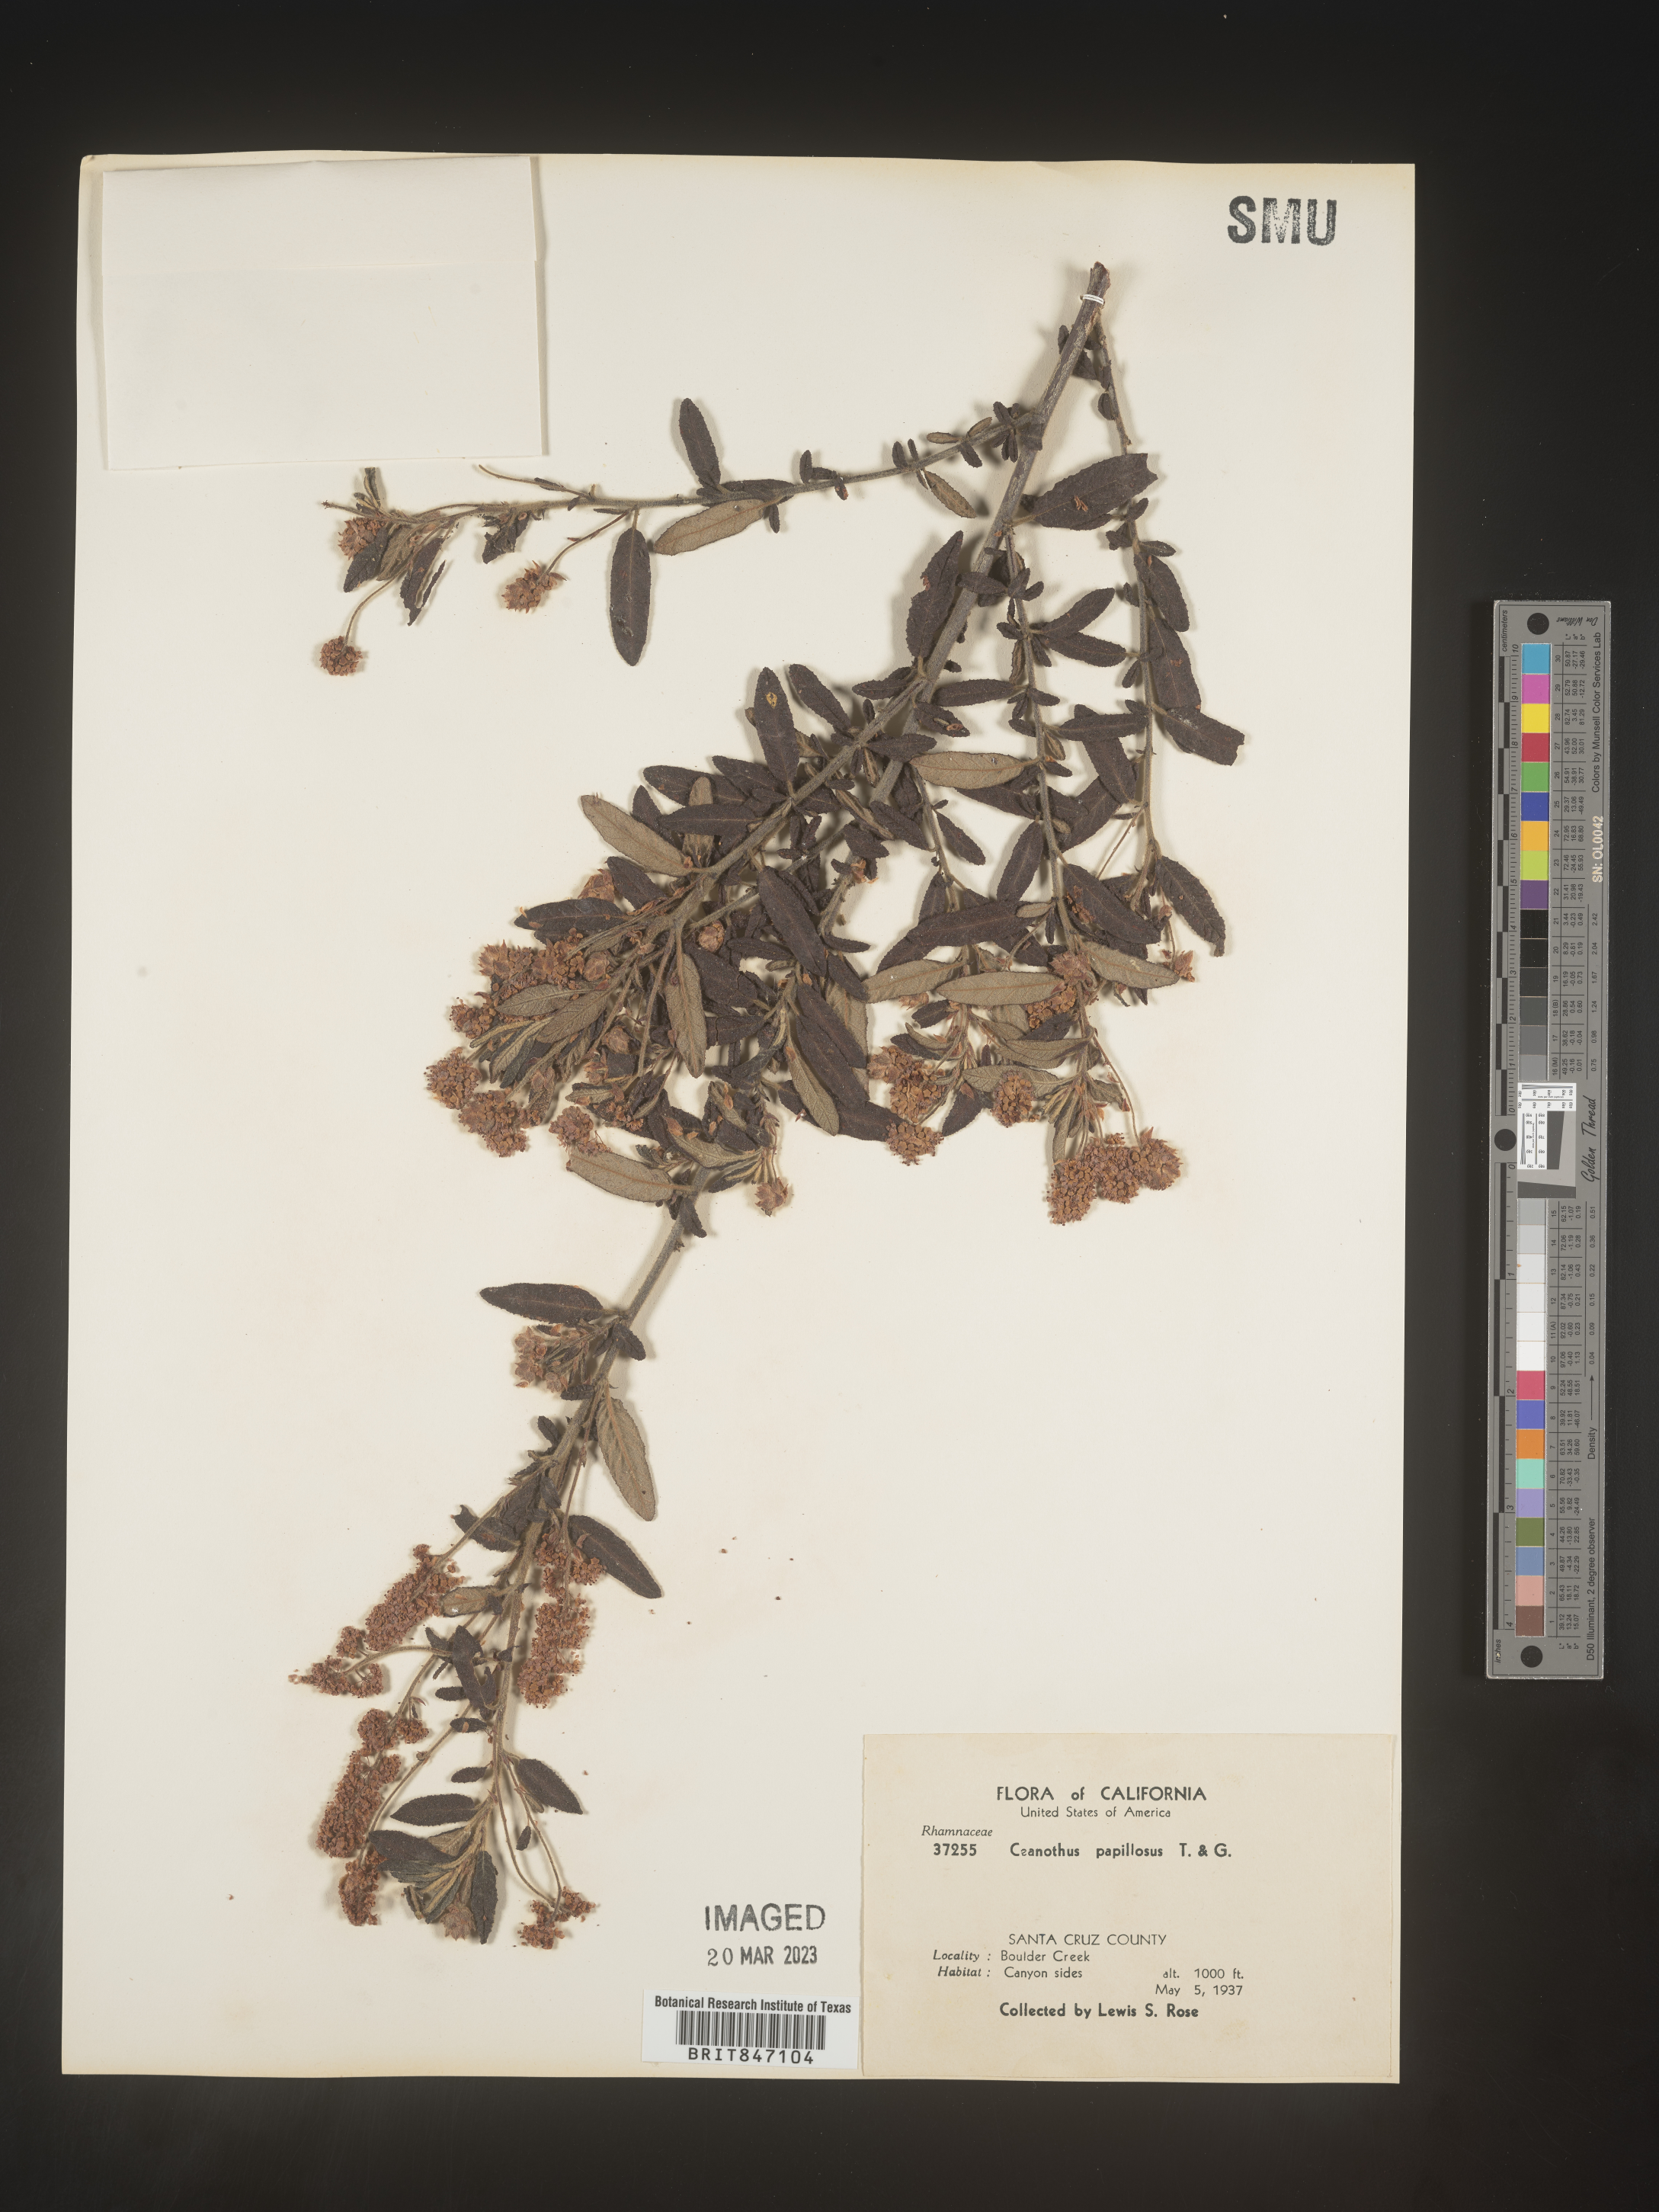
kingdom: Plantae
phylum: Tracheophyta
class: Magnoliopsida
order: Rosales
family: Rhamnaceae
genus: Ceanothus
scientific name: Ceanothus
